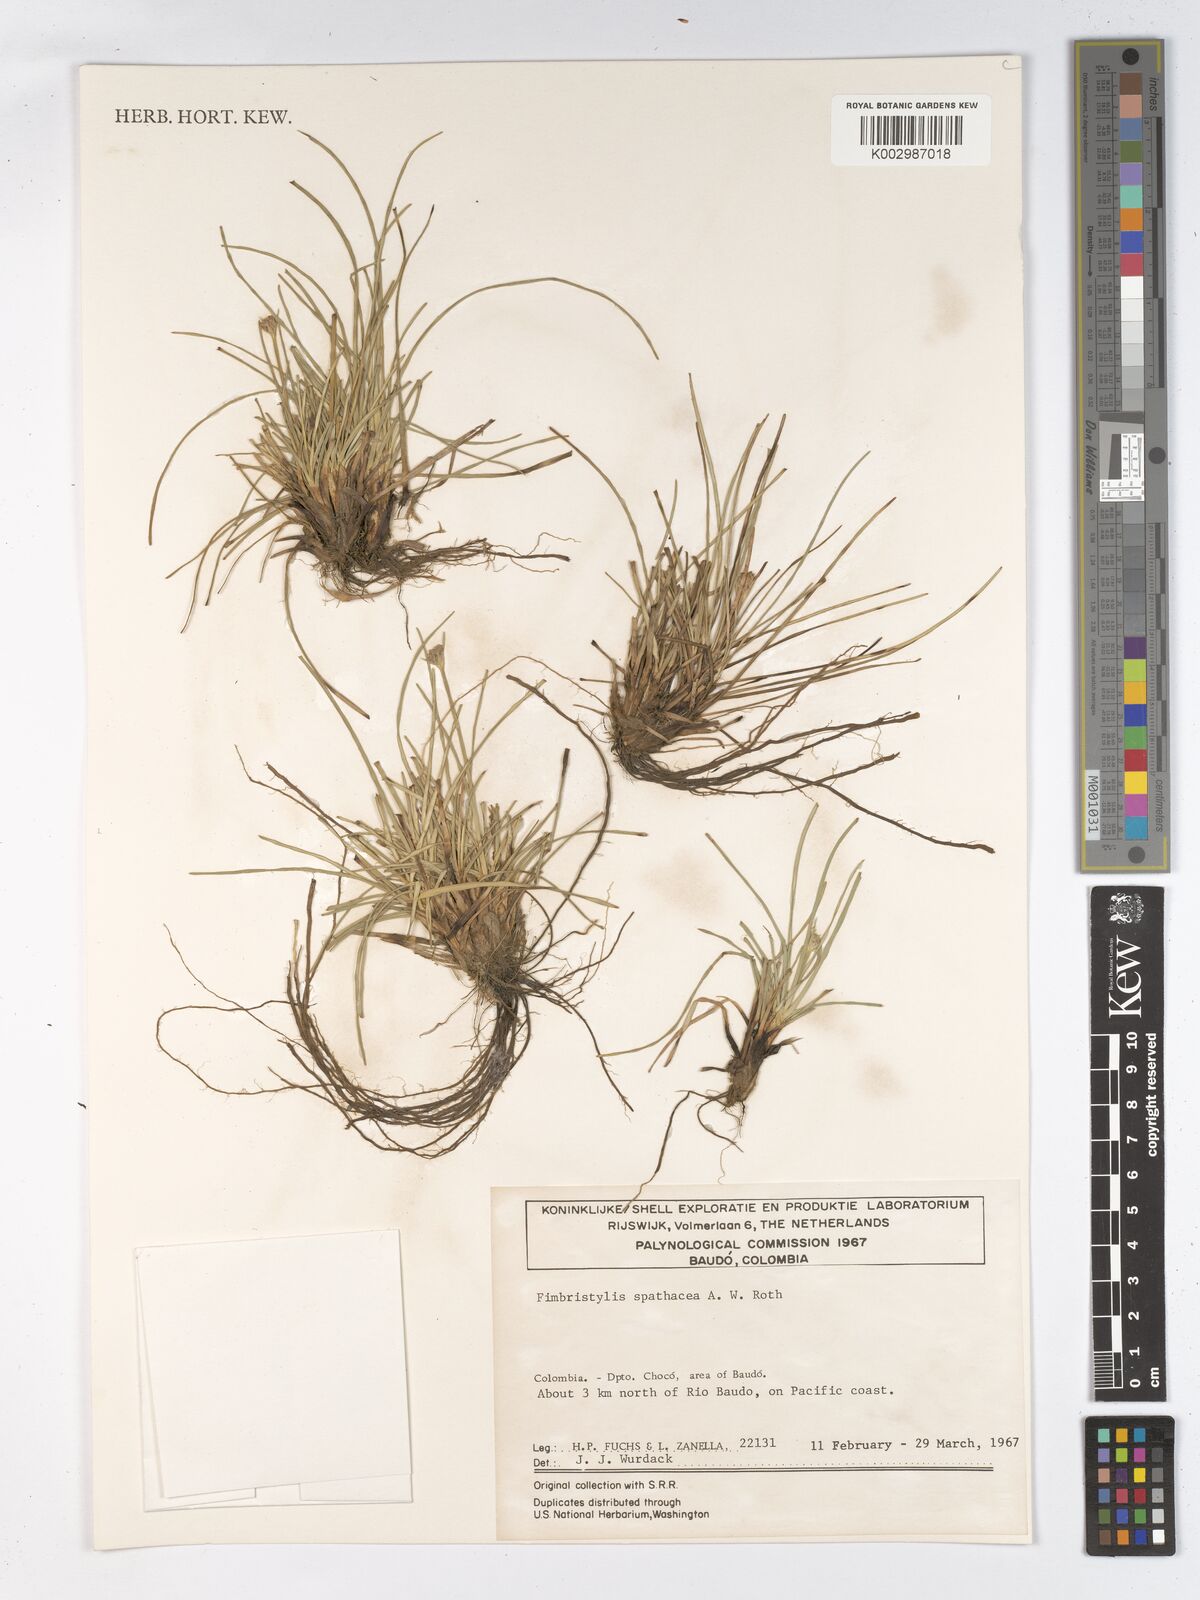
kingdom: Plantae
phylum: Tracheophyta
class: Liliopsida
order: Poales
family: Cyperaceae
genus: Fimbristylis
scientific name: Fimbristylis cymosa
